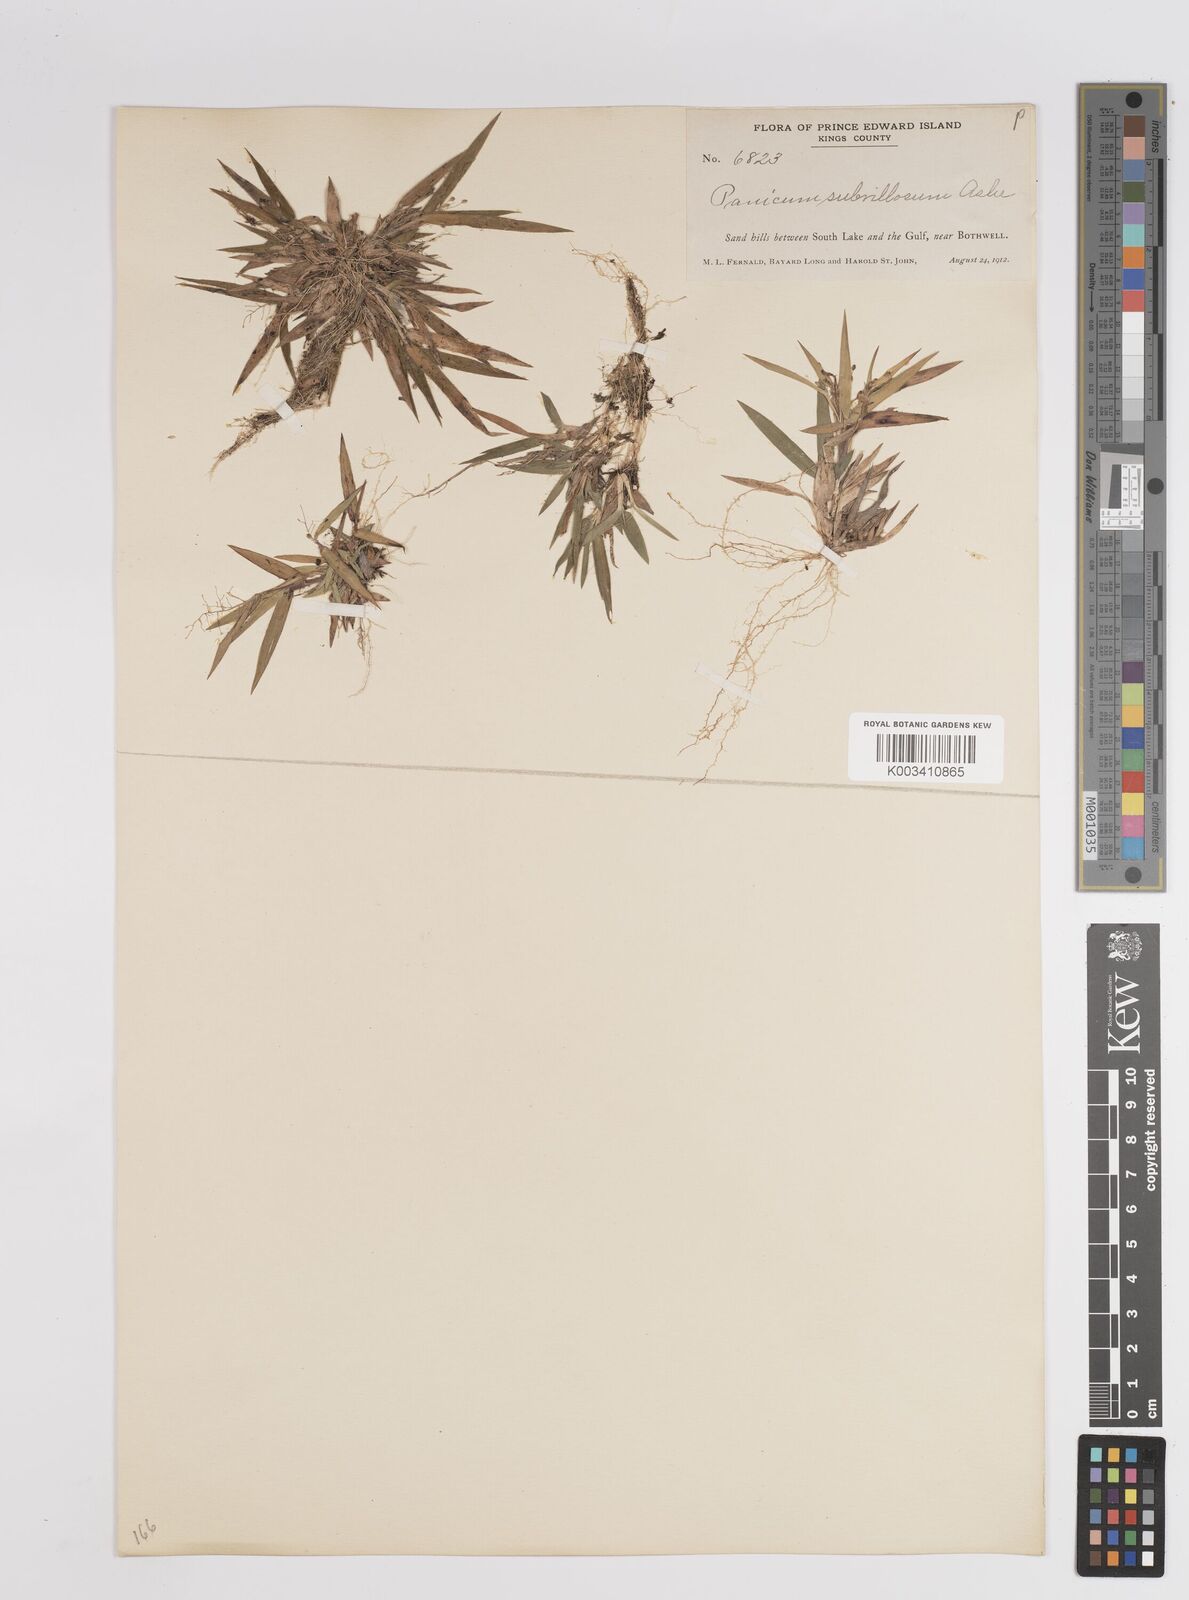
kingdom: Plantae
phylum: Tracheophyta
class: Liliopsida
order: Poales
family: Poaceae
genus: Dichanthelium
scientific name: Dichanthelium subvillosum
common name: Soft-haired panicgrass
